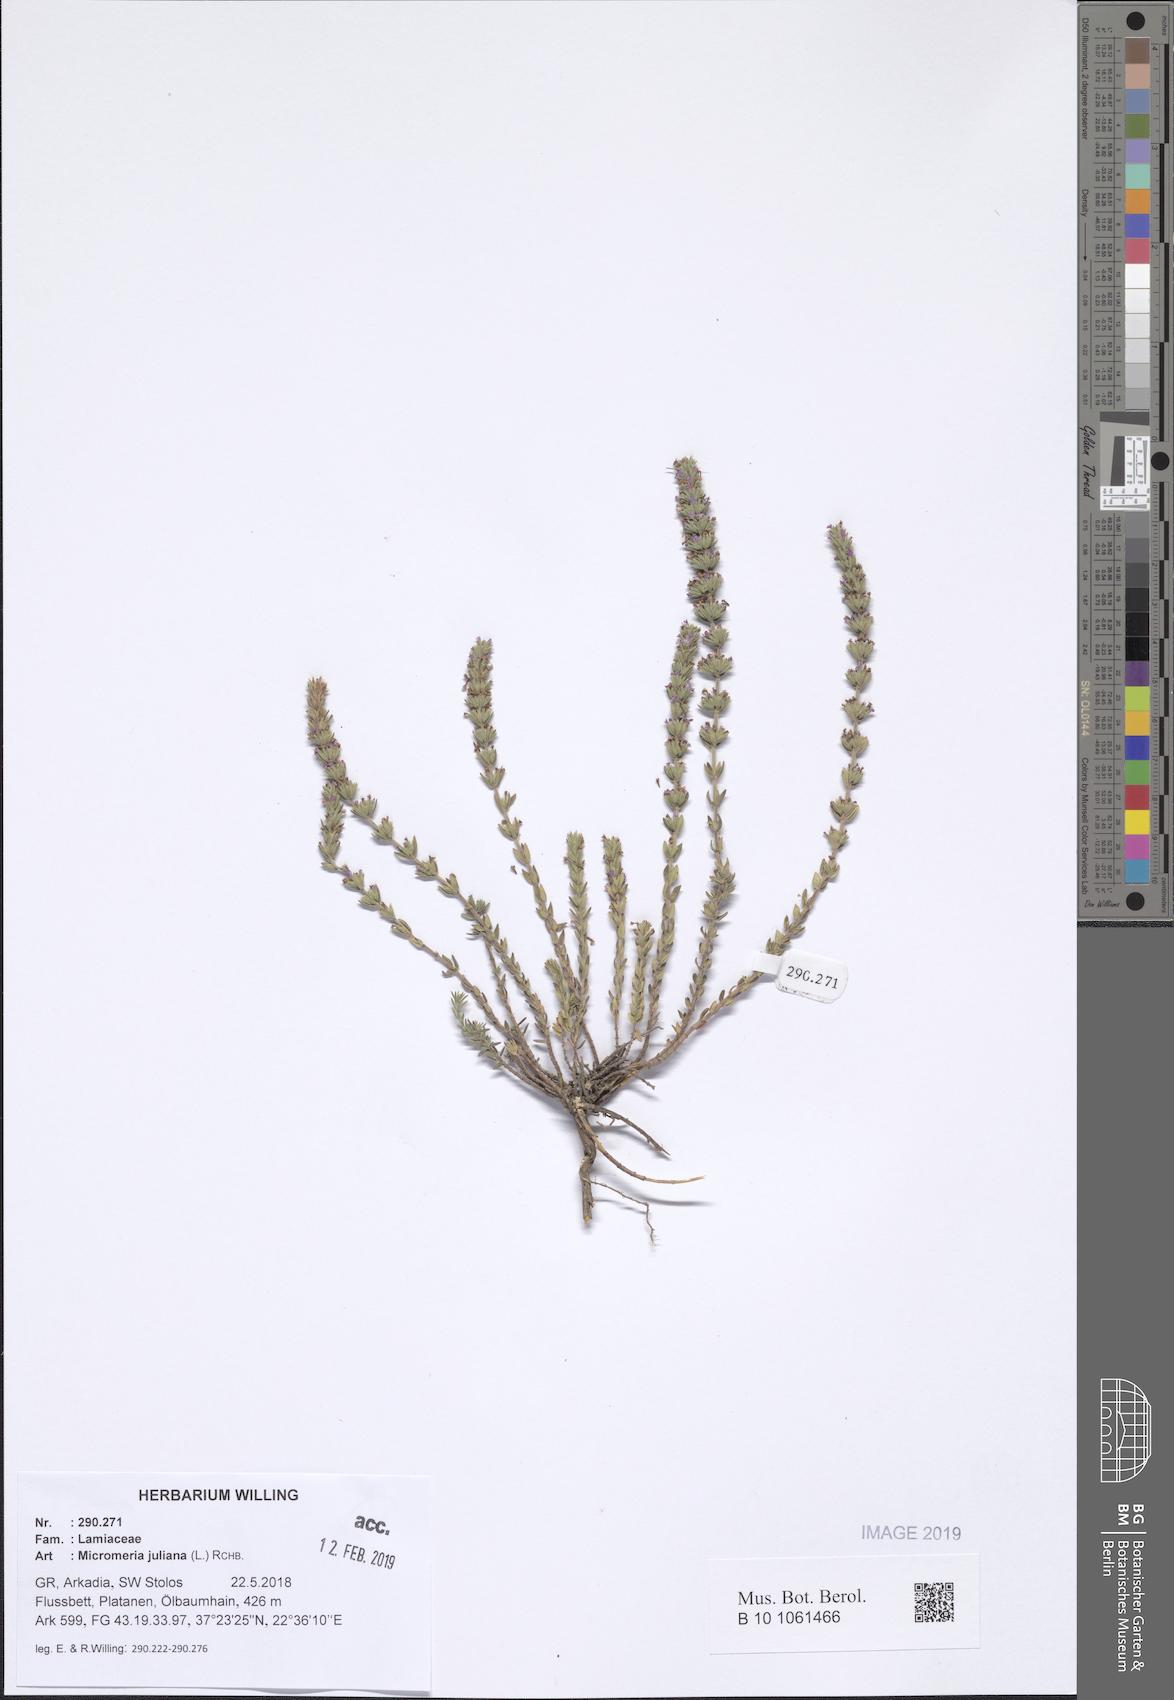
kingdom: Plantae
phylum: Tracheophyta
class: Magnoliopsida
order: Lamiales
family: Lamiaceae
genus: Micromeria
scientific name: Micromeria juliana
